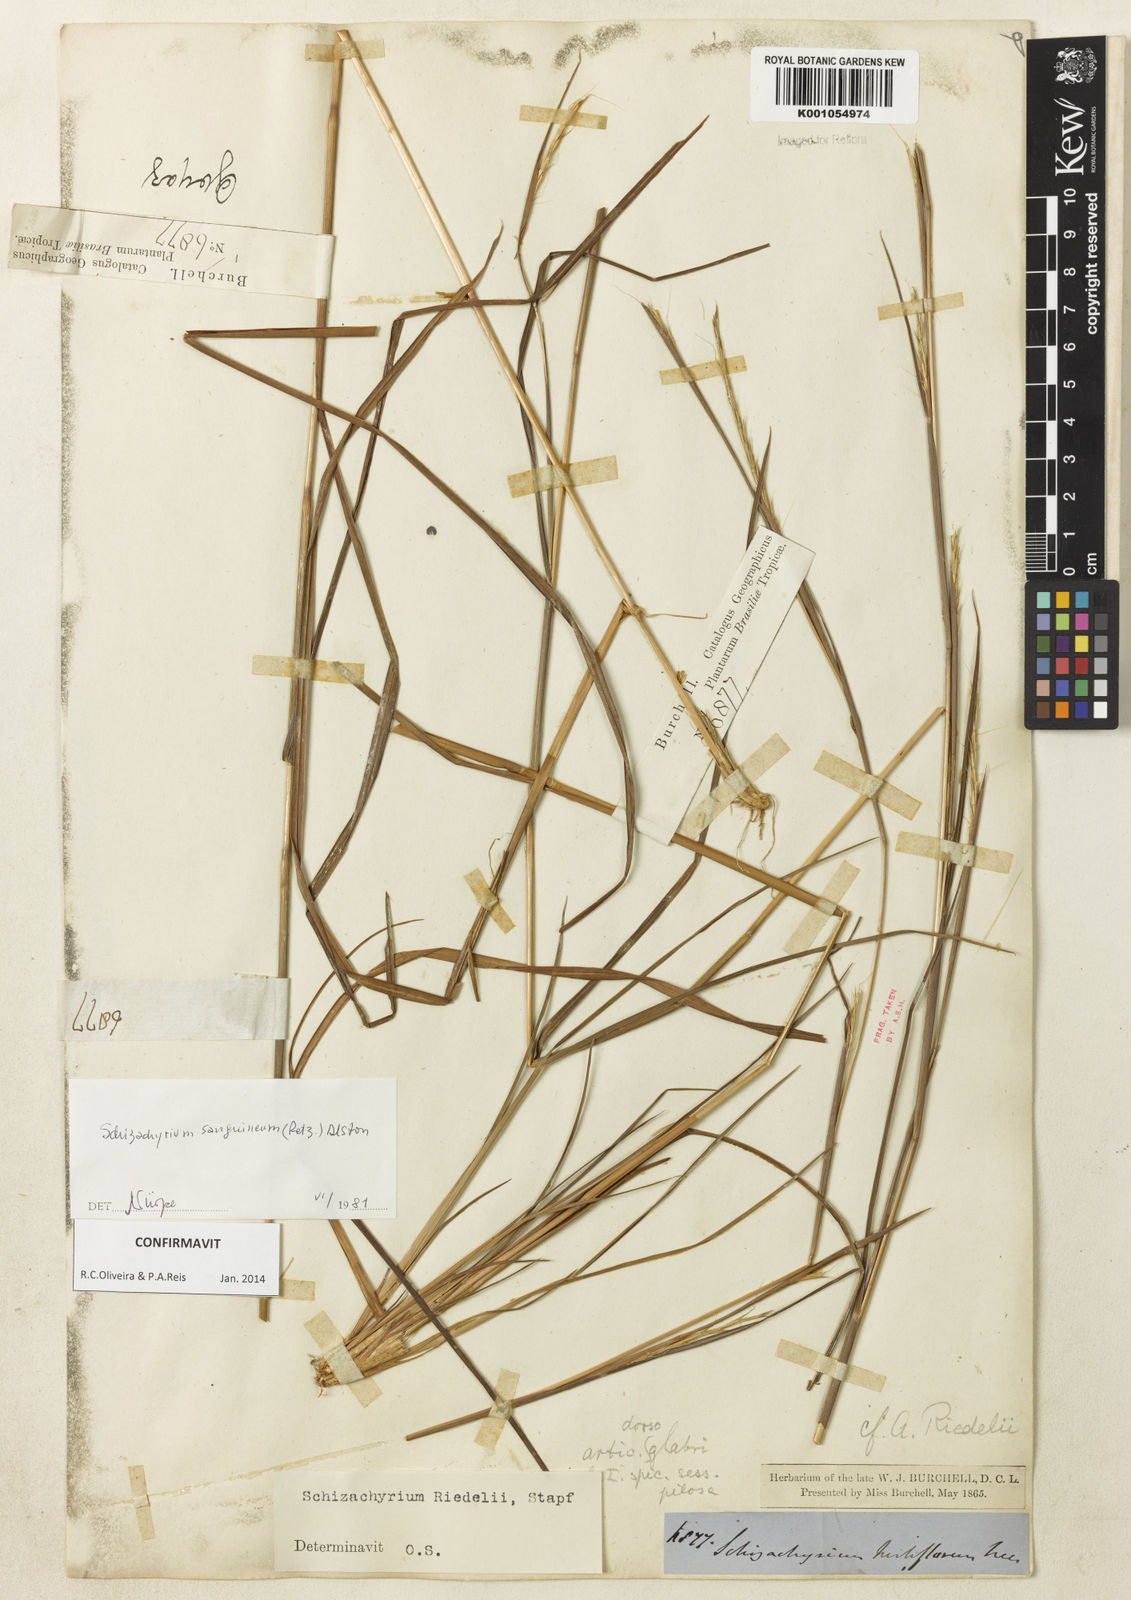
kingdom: Plantae
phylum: Tracheophyta
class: Liliopsida
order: Poales
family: Poaceae
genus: Schizachyrium
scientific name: Schizachyrium sanguineum
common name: Crimson bluestem
